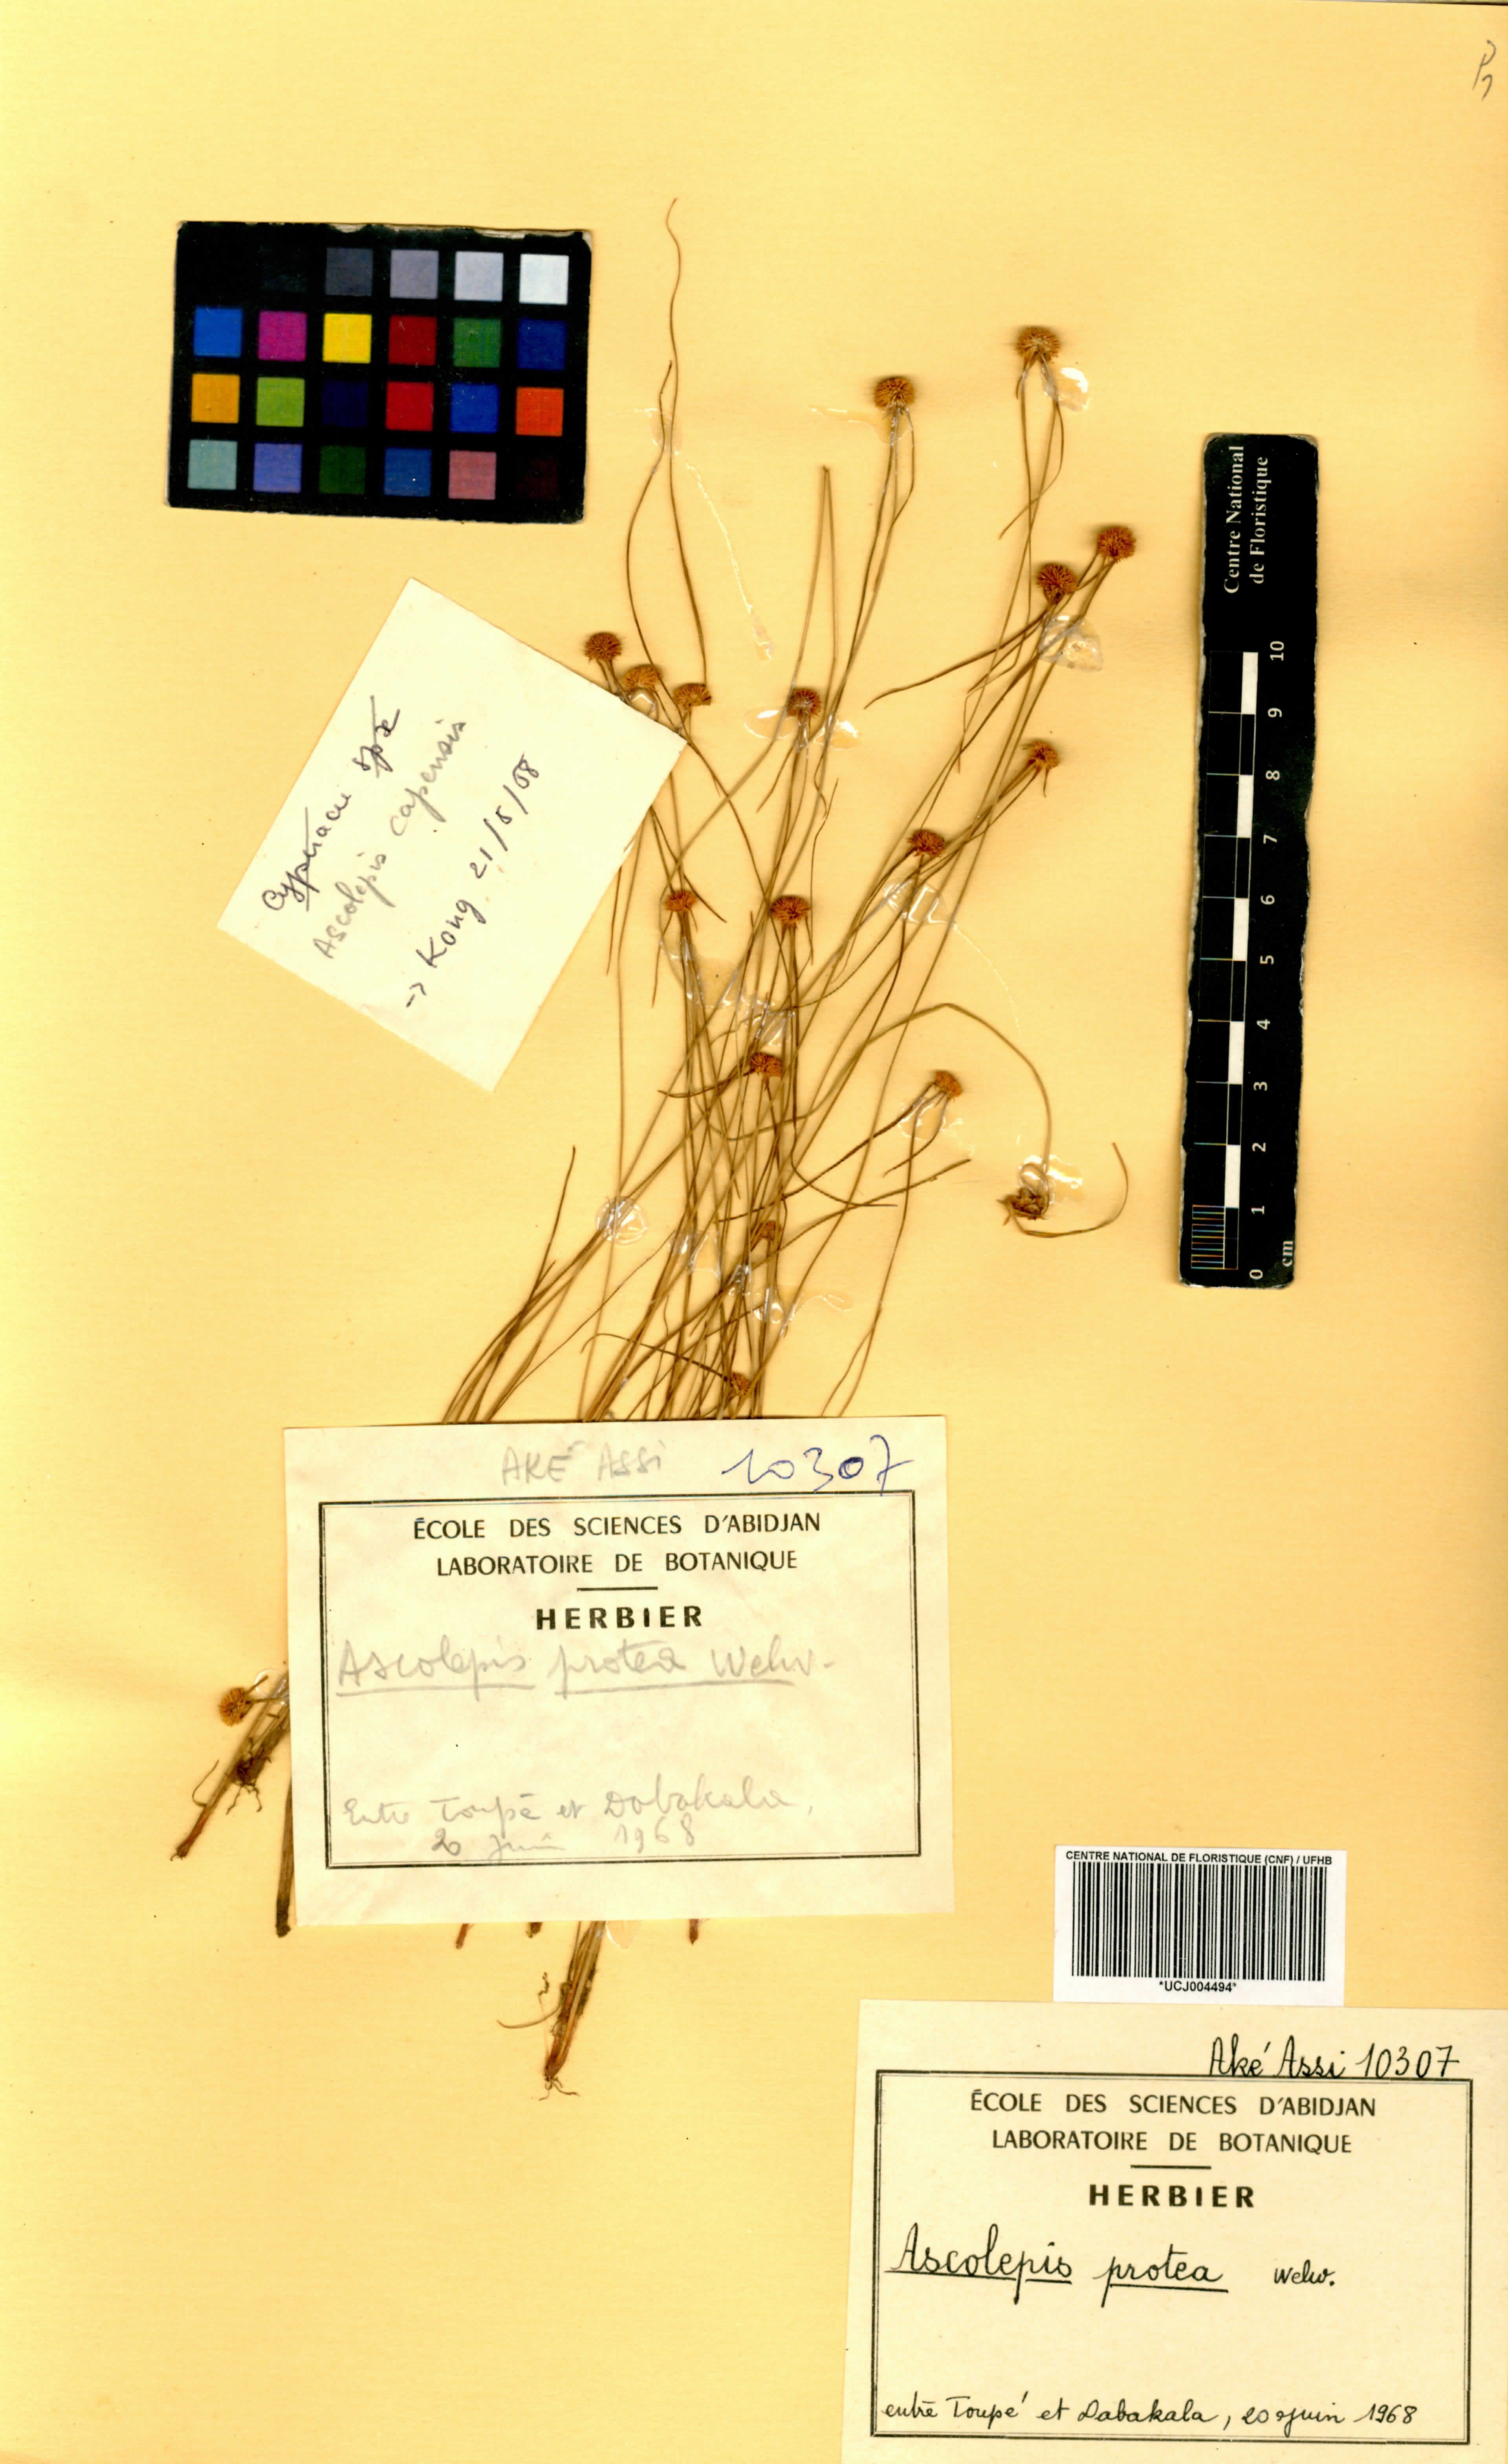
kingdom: Plantae
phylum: Tracheophyta
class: Liliopsida
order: Poales
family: Cyperaceae
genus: Cyperus
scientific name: Cyperus proteus
